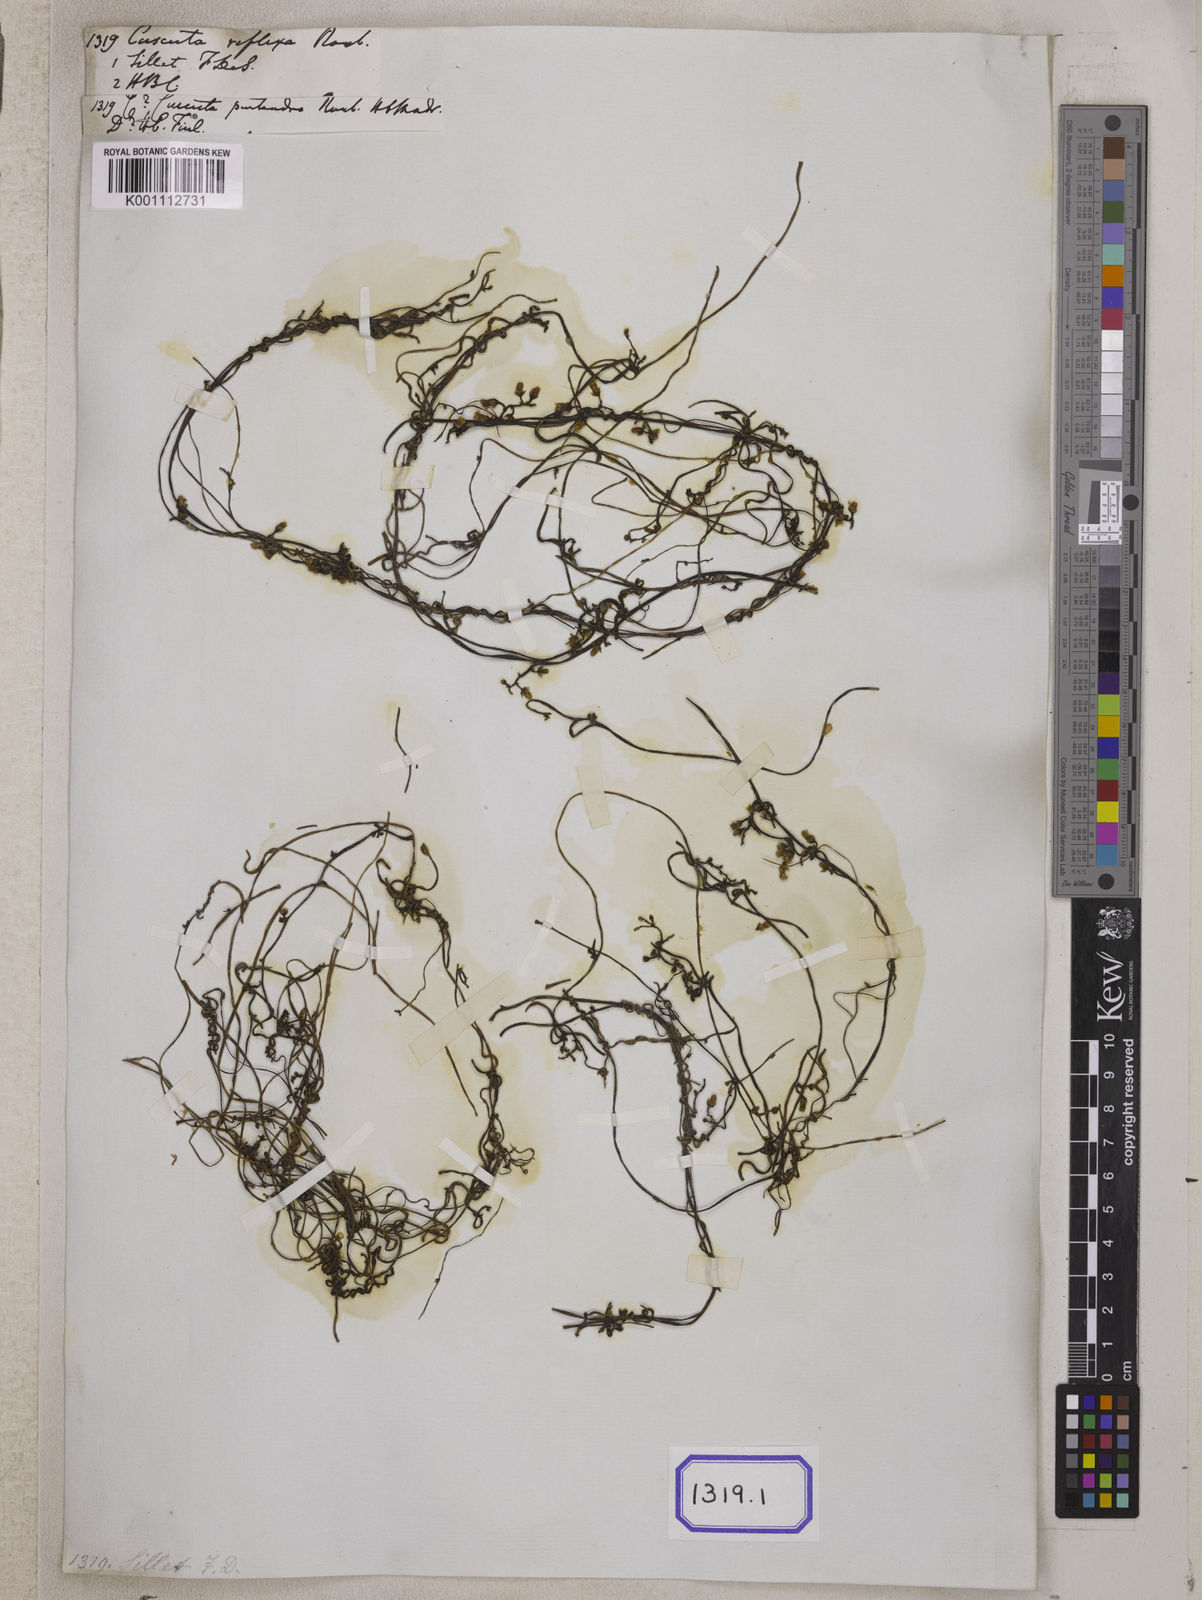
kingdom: Plantae
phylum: Tracheophyta
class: Magnoliopsida
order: Solanales
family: Convolvulaceae
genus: Cuscuta
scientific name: Cuscuta reflexa
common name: Giant dodder
